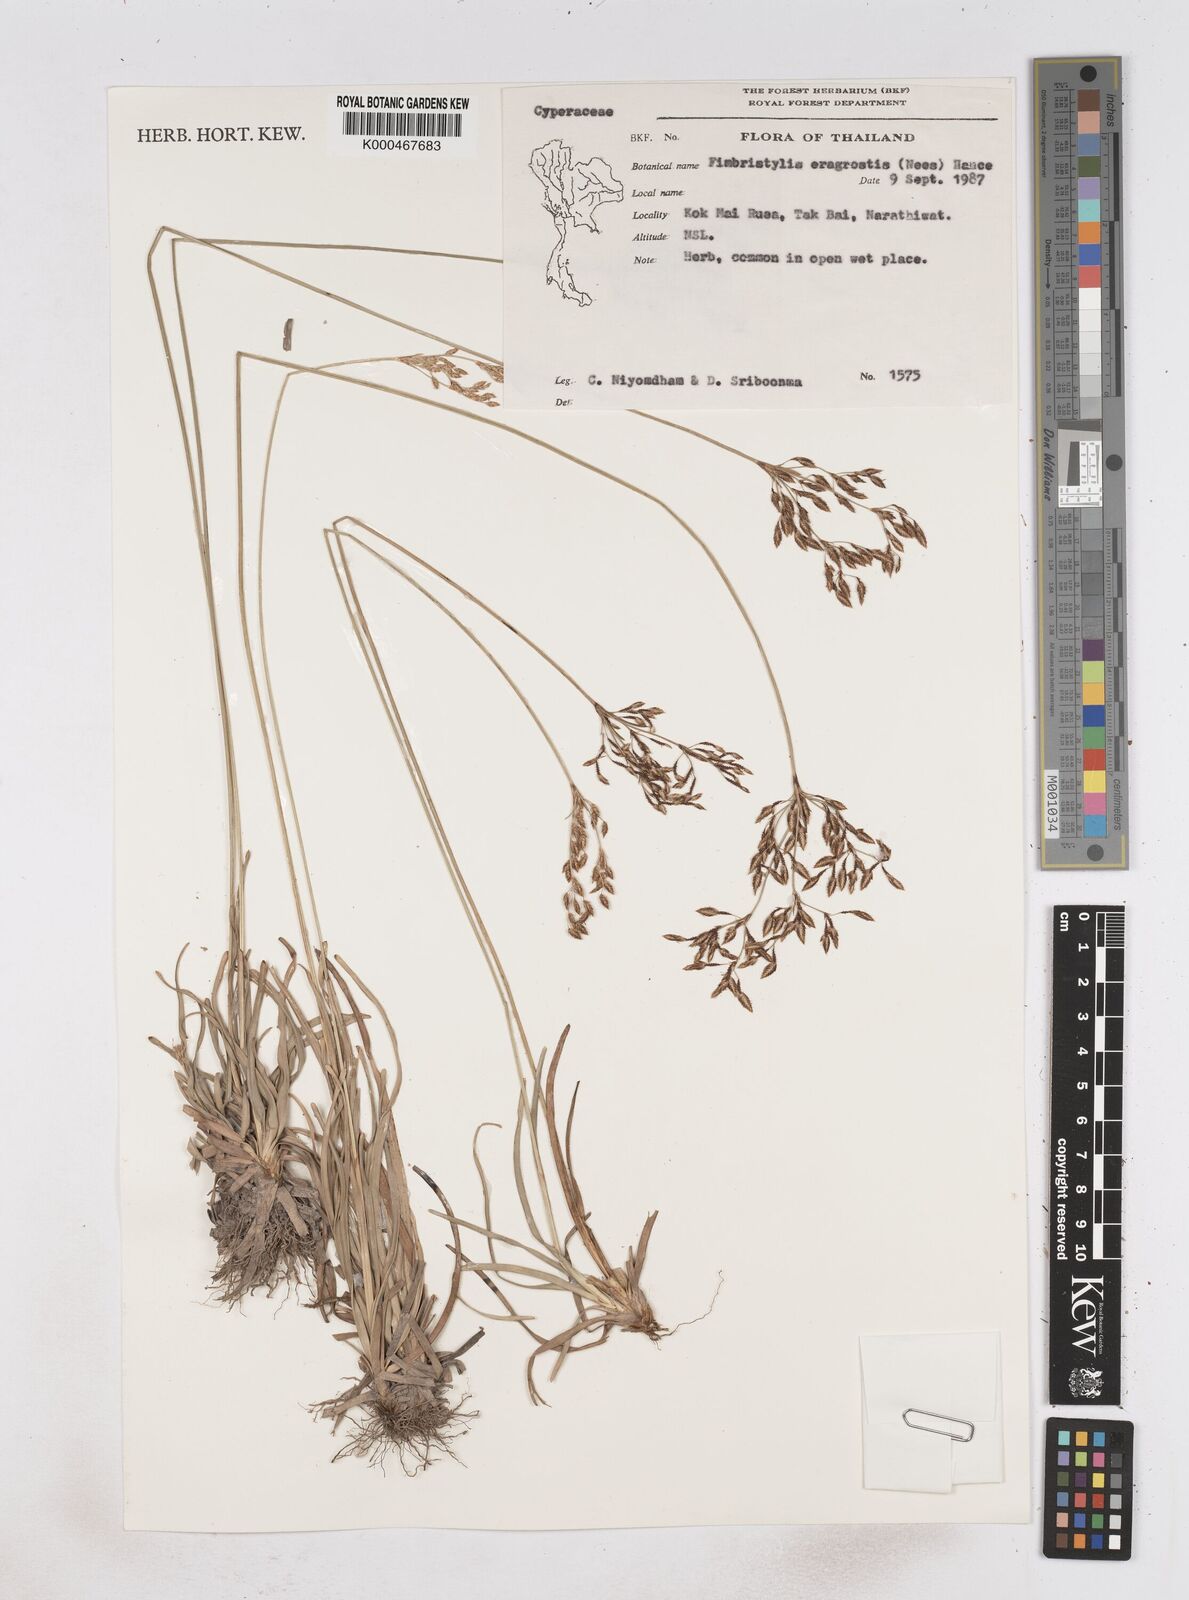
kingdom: Plantae
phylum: Tracheophyta
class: Liliopsida
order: Poales
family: Cyperaceae
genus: Fimbristylis
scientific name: Fimbristylis eragrostis
